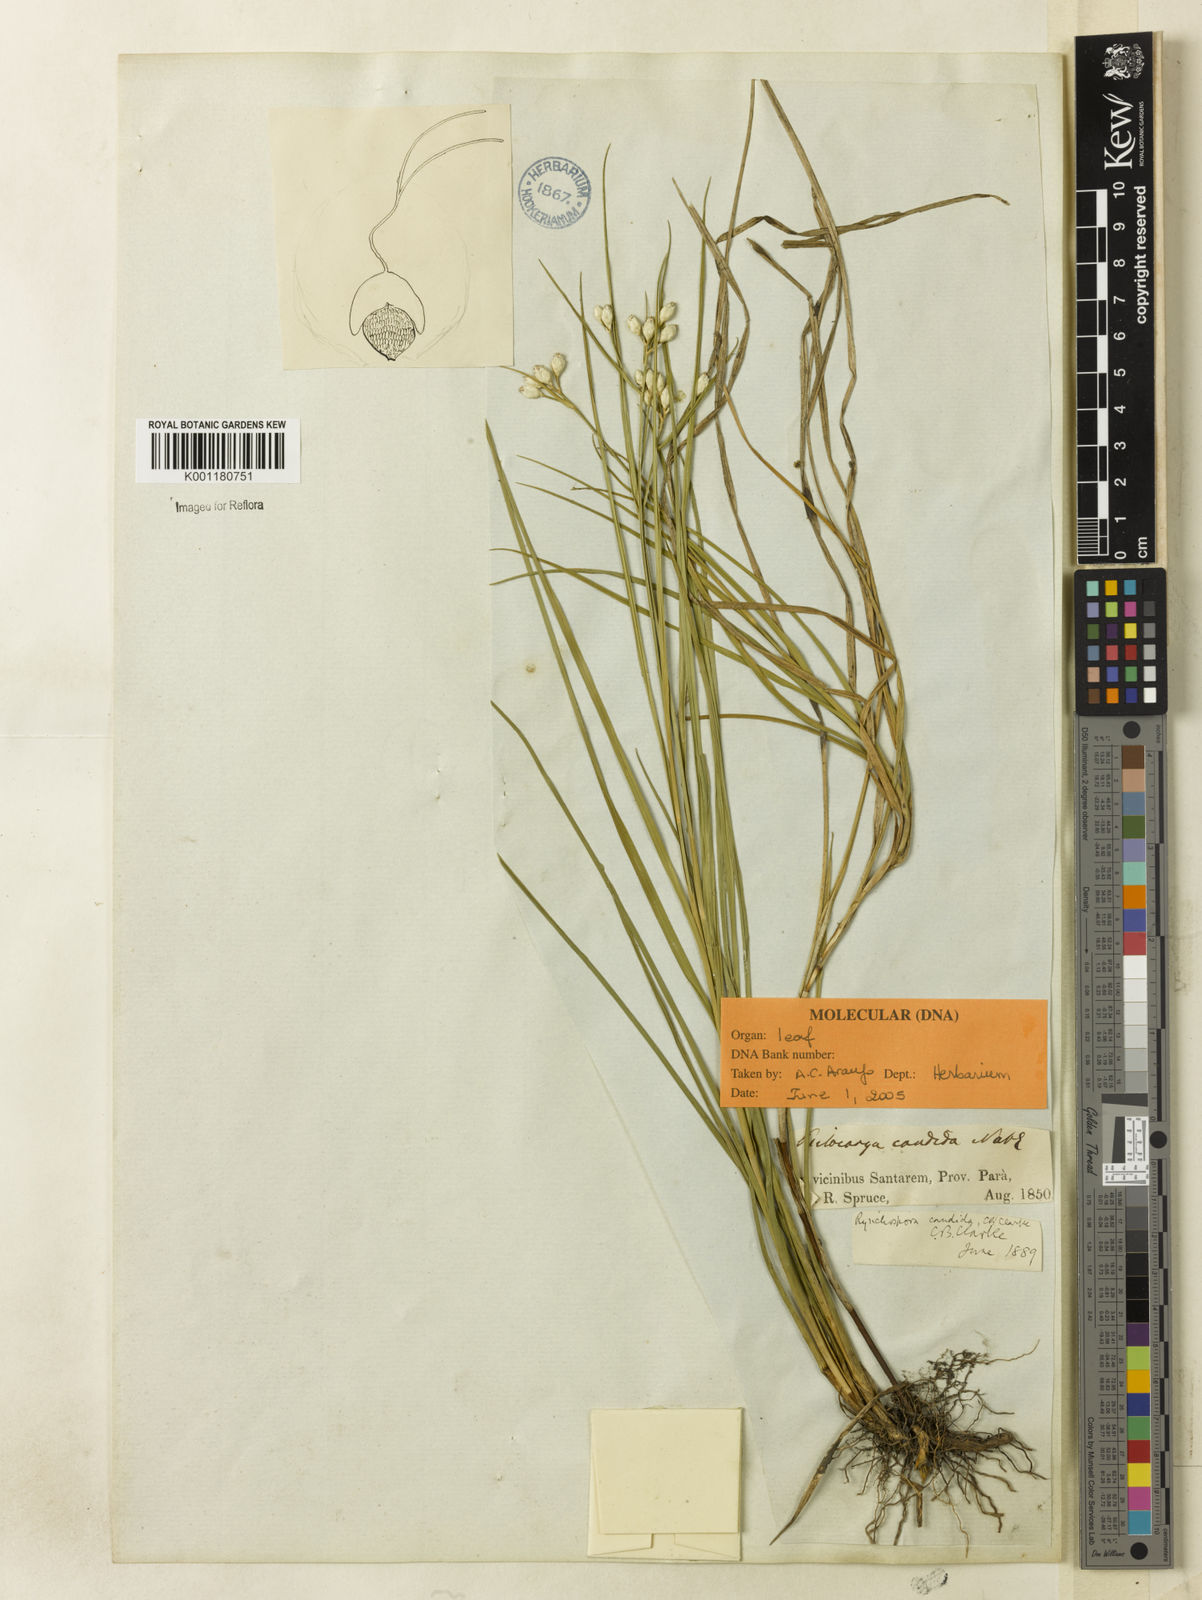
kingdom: Plantae
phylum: Tracheophyta
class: Liliopsida
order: Poales
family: Cyperaceae
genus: Rhynchospora
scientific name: Rhynchospora candida
